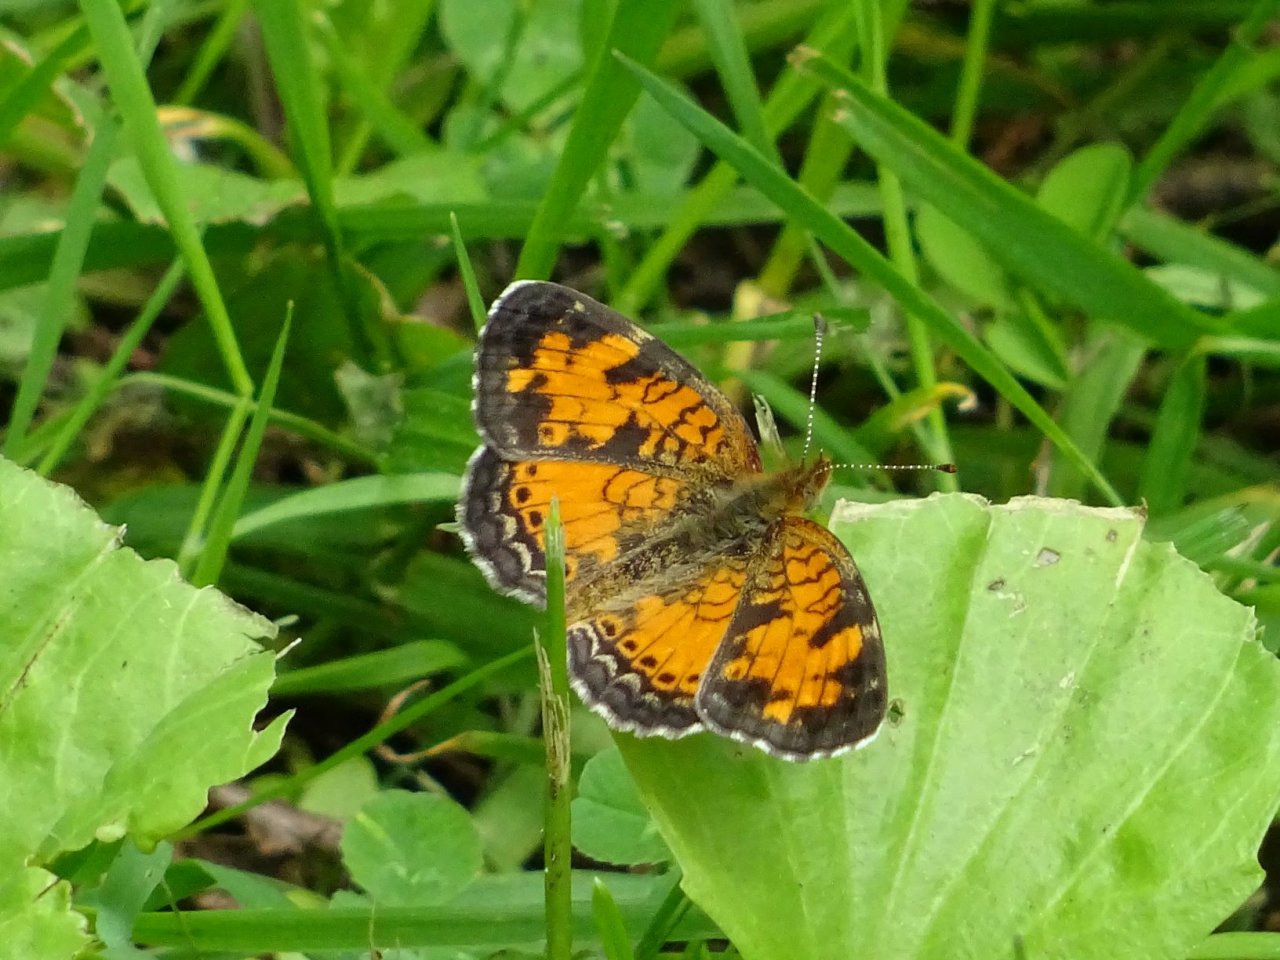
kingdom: Animalia
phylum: Arthropoda
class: Insecta
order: Lepidoptera
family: Nymphalidae
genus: Phyciodes
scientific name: Phyciodes tharos
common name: Pearl Crescent
